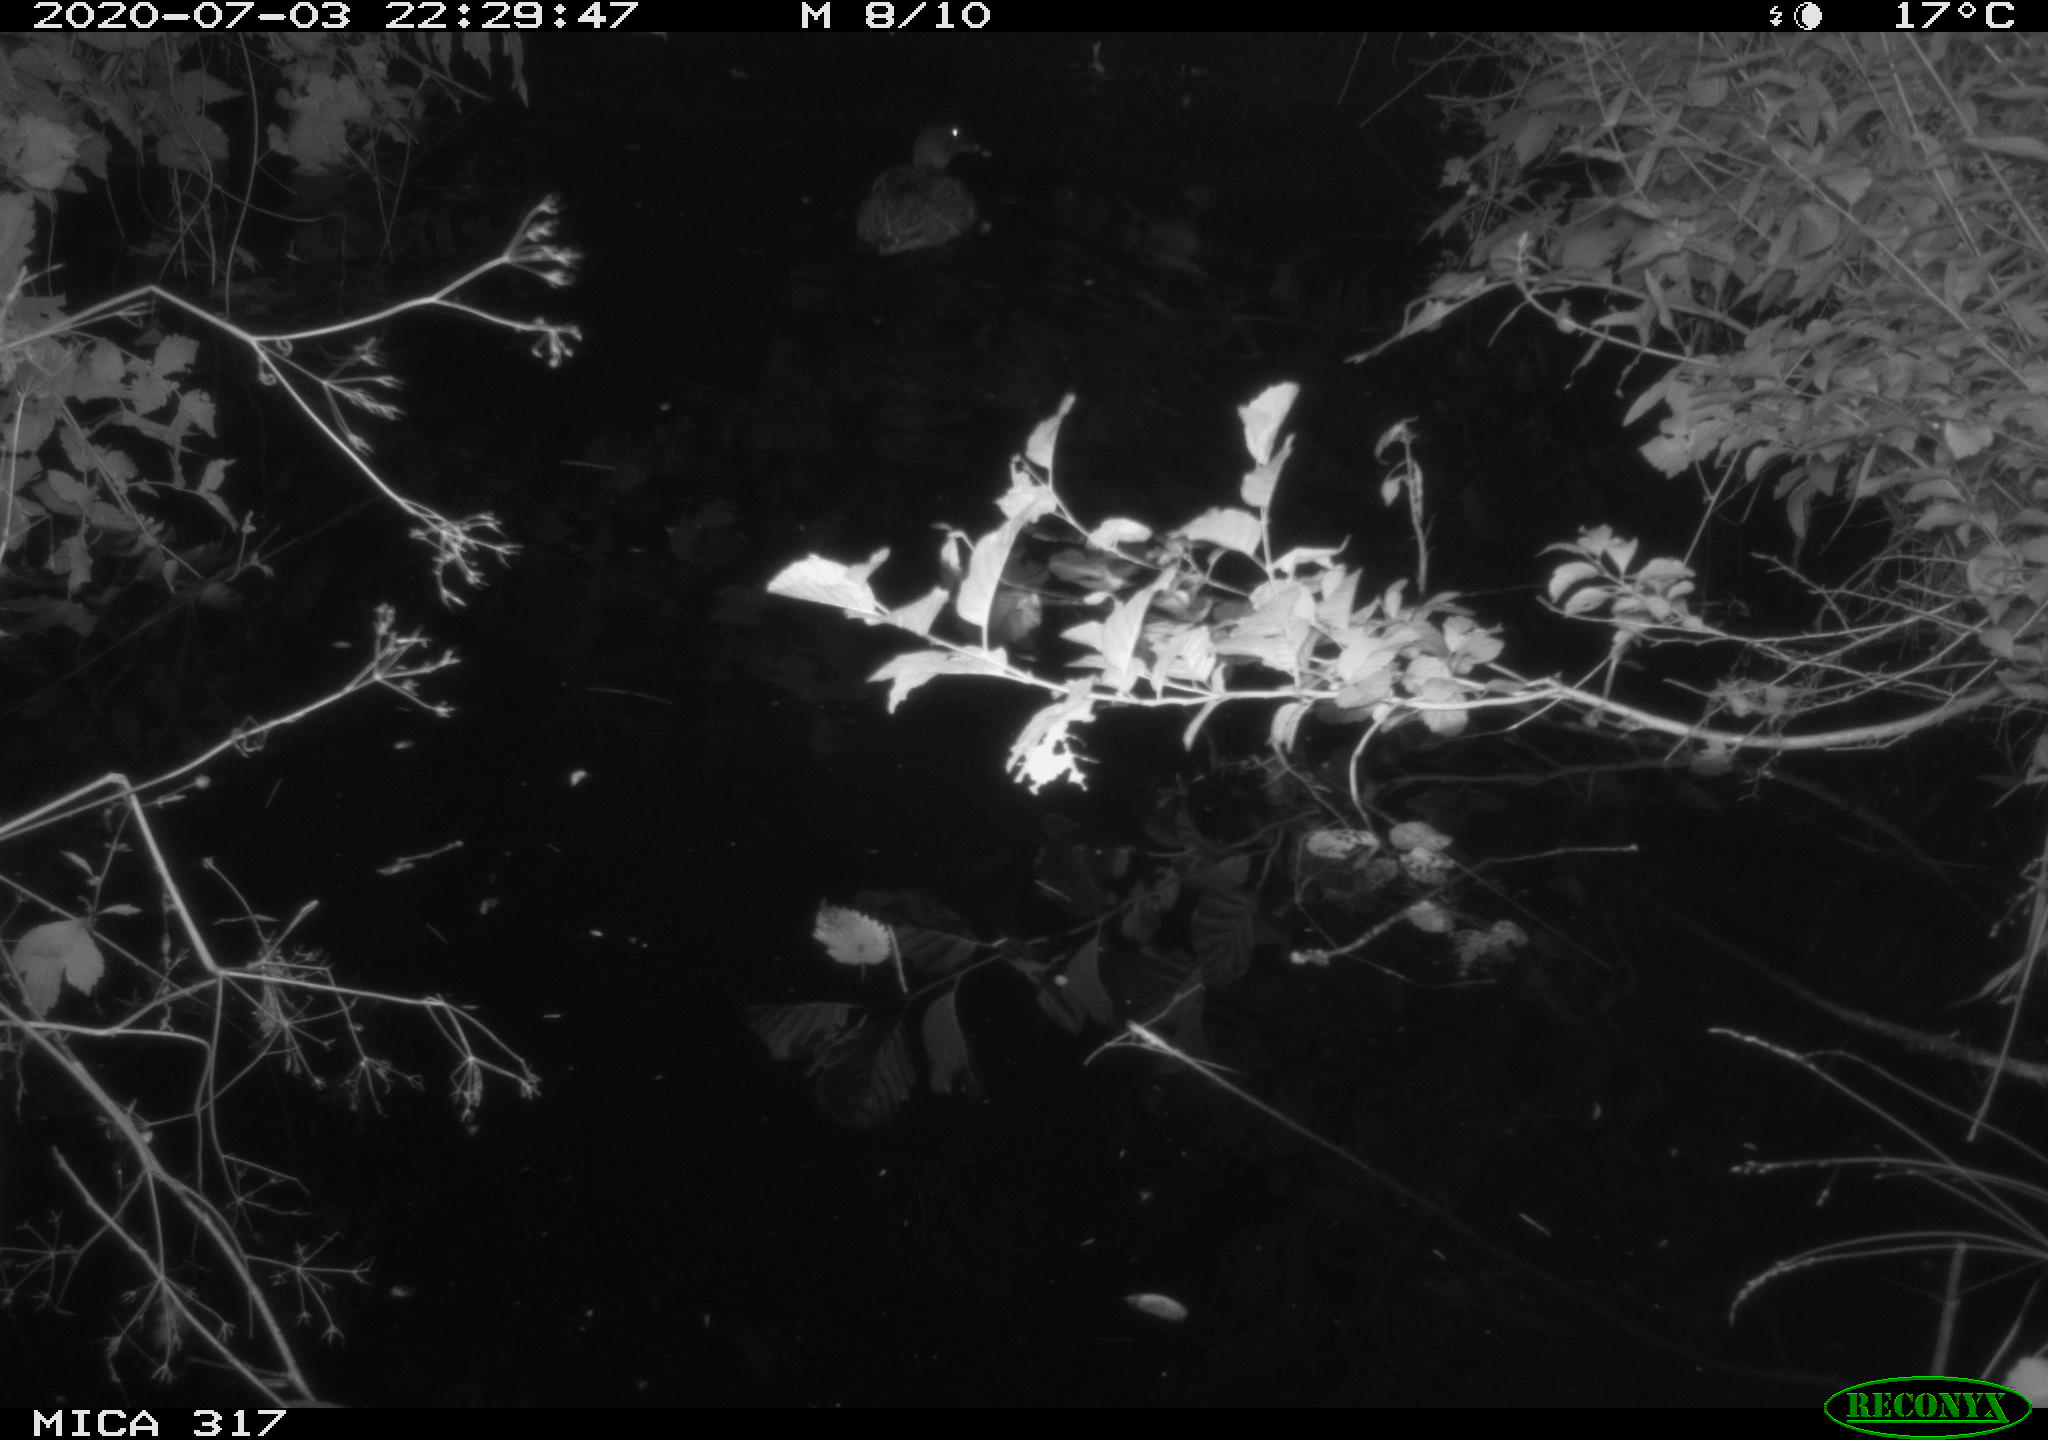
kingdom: Animalia
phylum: Chordata
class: Aves
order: Anseriformes
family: Anatidae
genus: Anas
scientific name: Anas platyrhynchos
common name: Mallard
